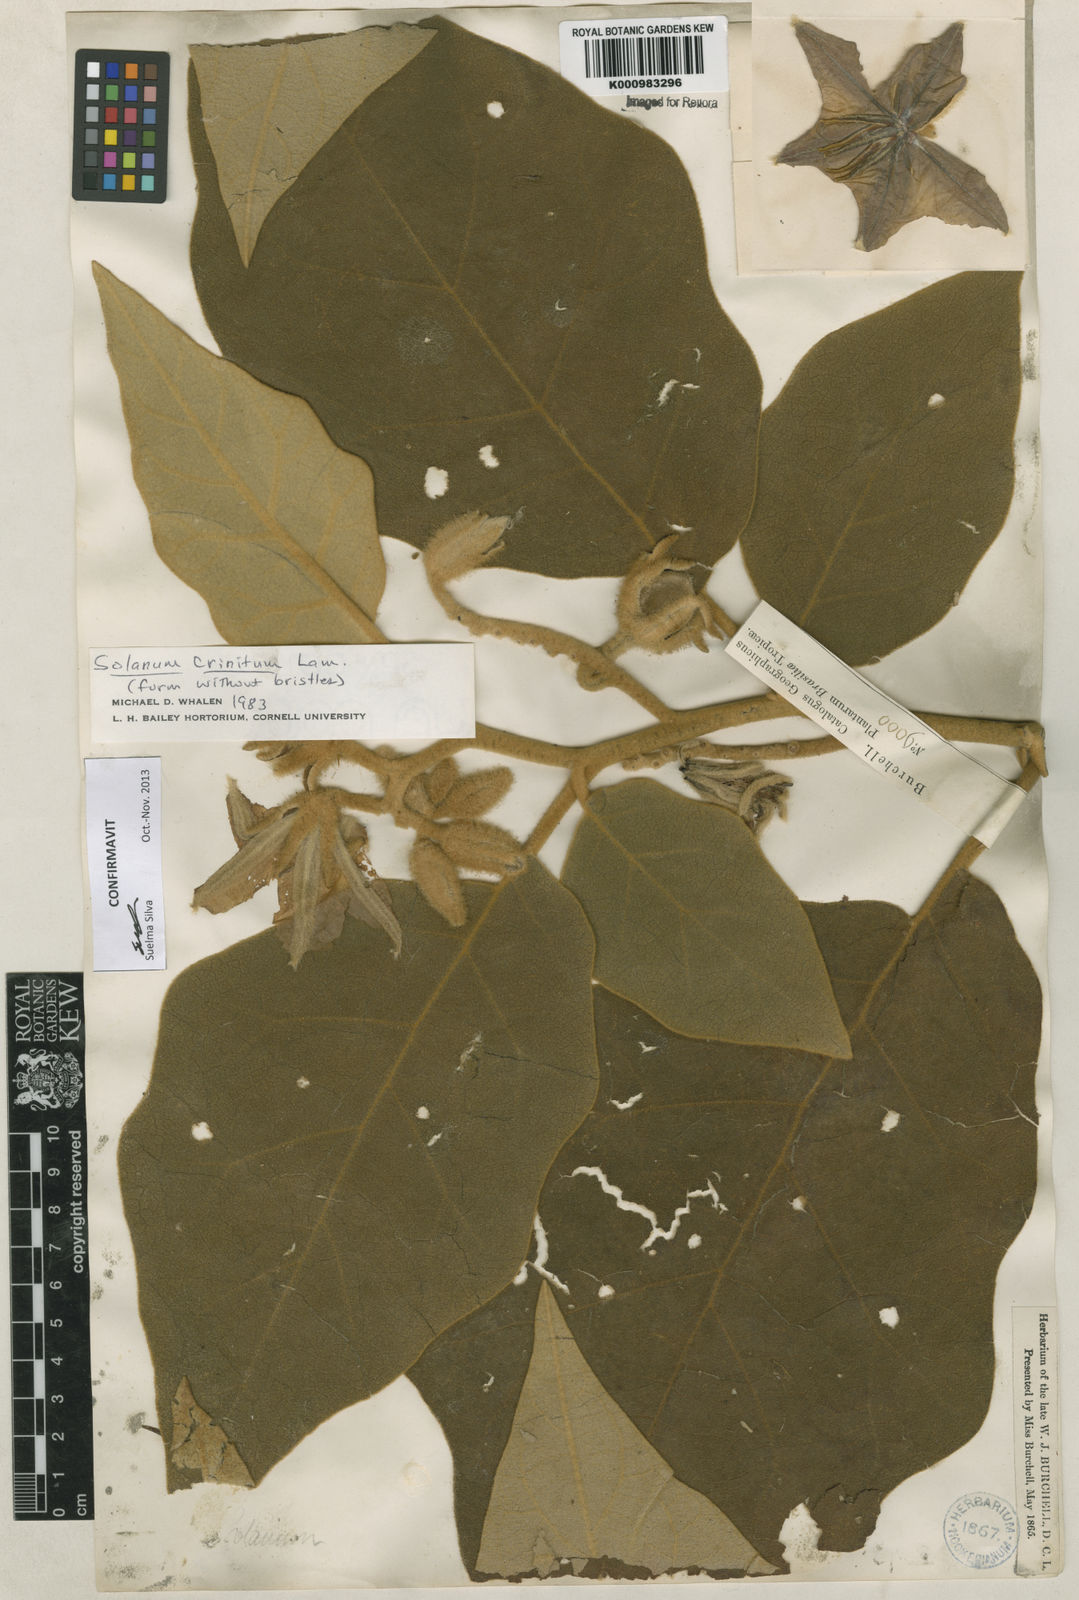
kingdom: Plantae
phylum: Tracheophyta
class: Magnoliopsida
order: Solanales
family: Solanaceae
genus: Solanum
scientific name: Solanum crinitum
